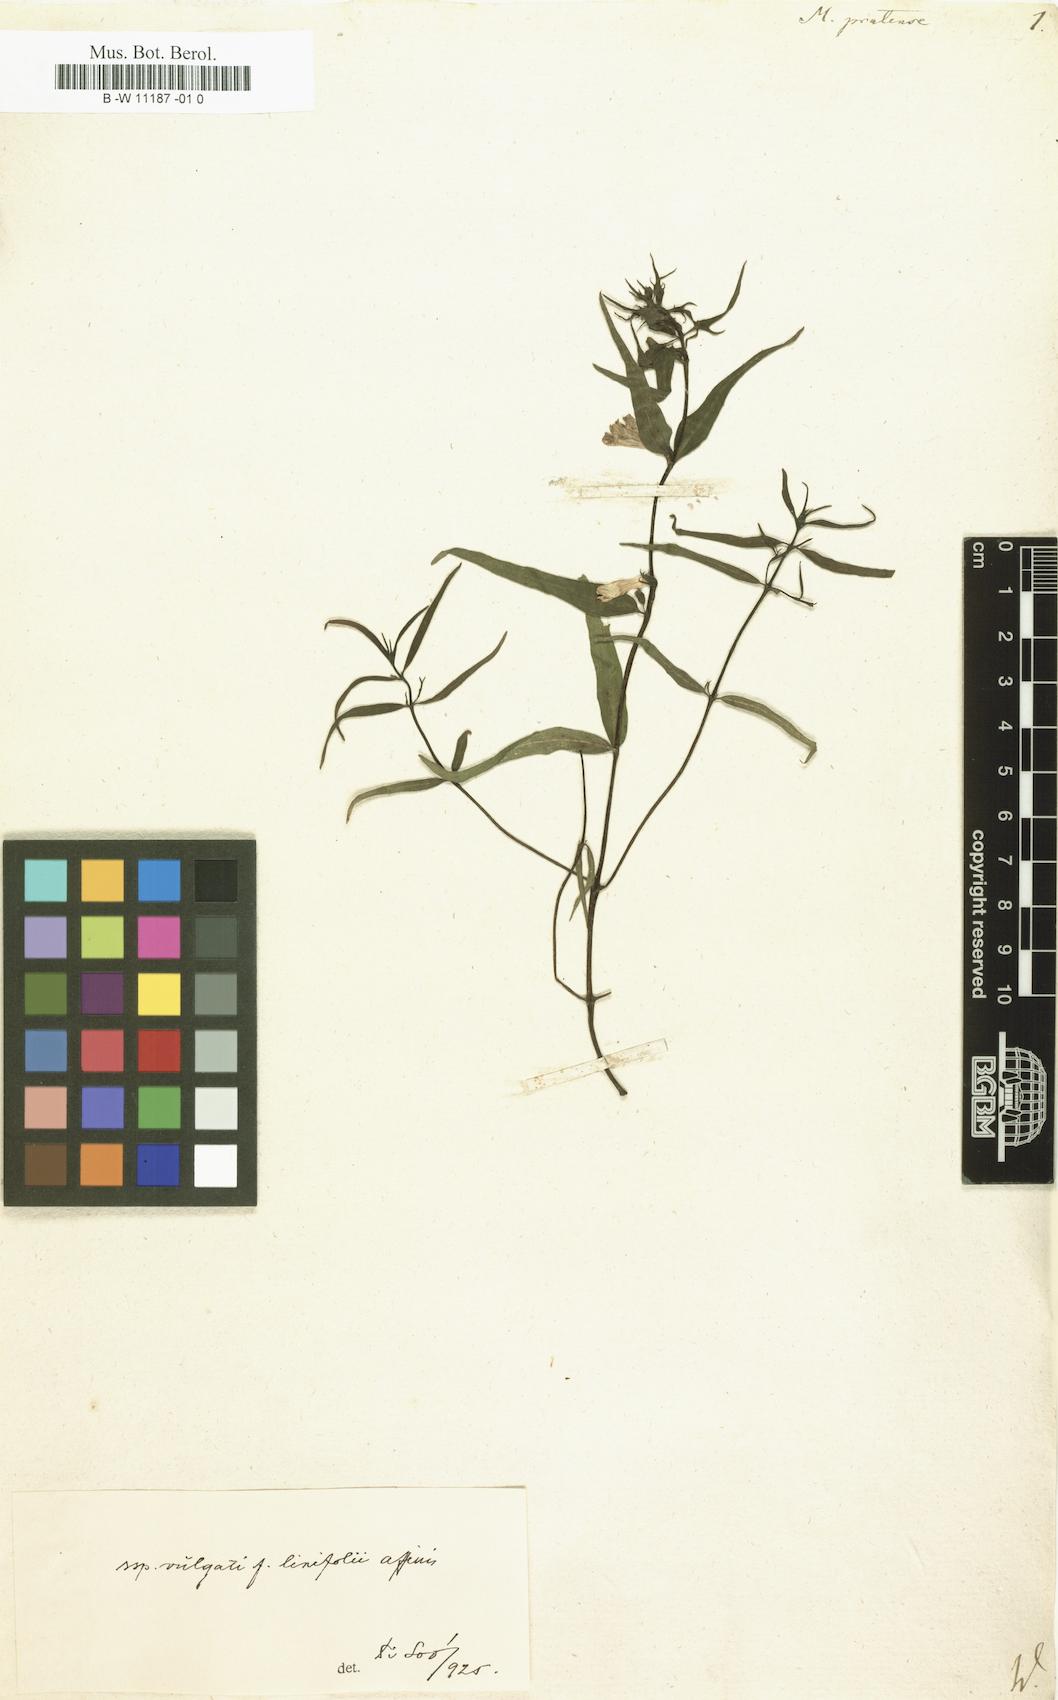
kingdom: Plantae
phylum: Tracheophyta
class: Magnoliopsida
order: Lamiales
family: Orobanchaceae
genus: Melampyrum
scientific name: Melampyrum pratense
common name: Common cow-wheat
